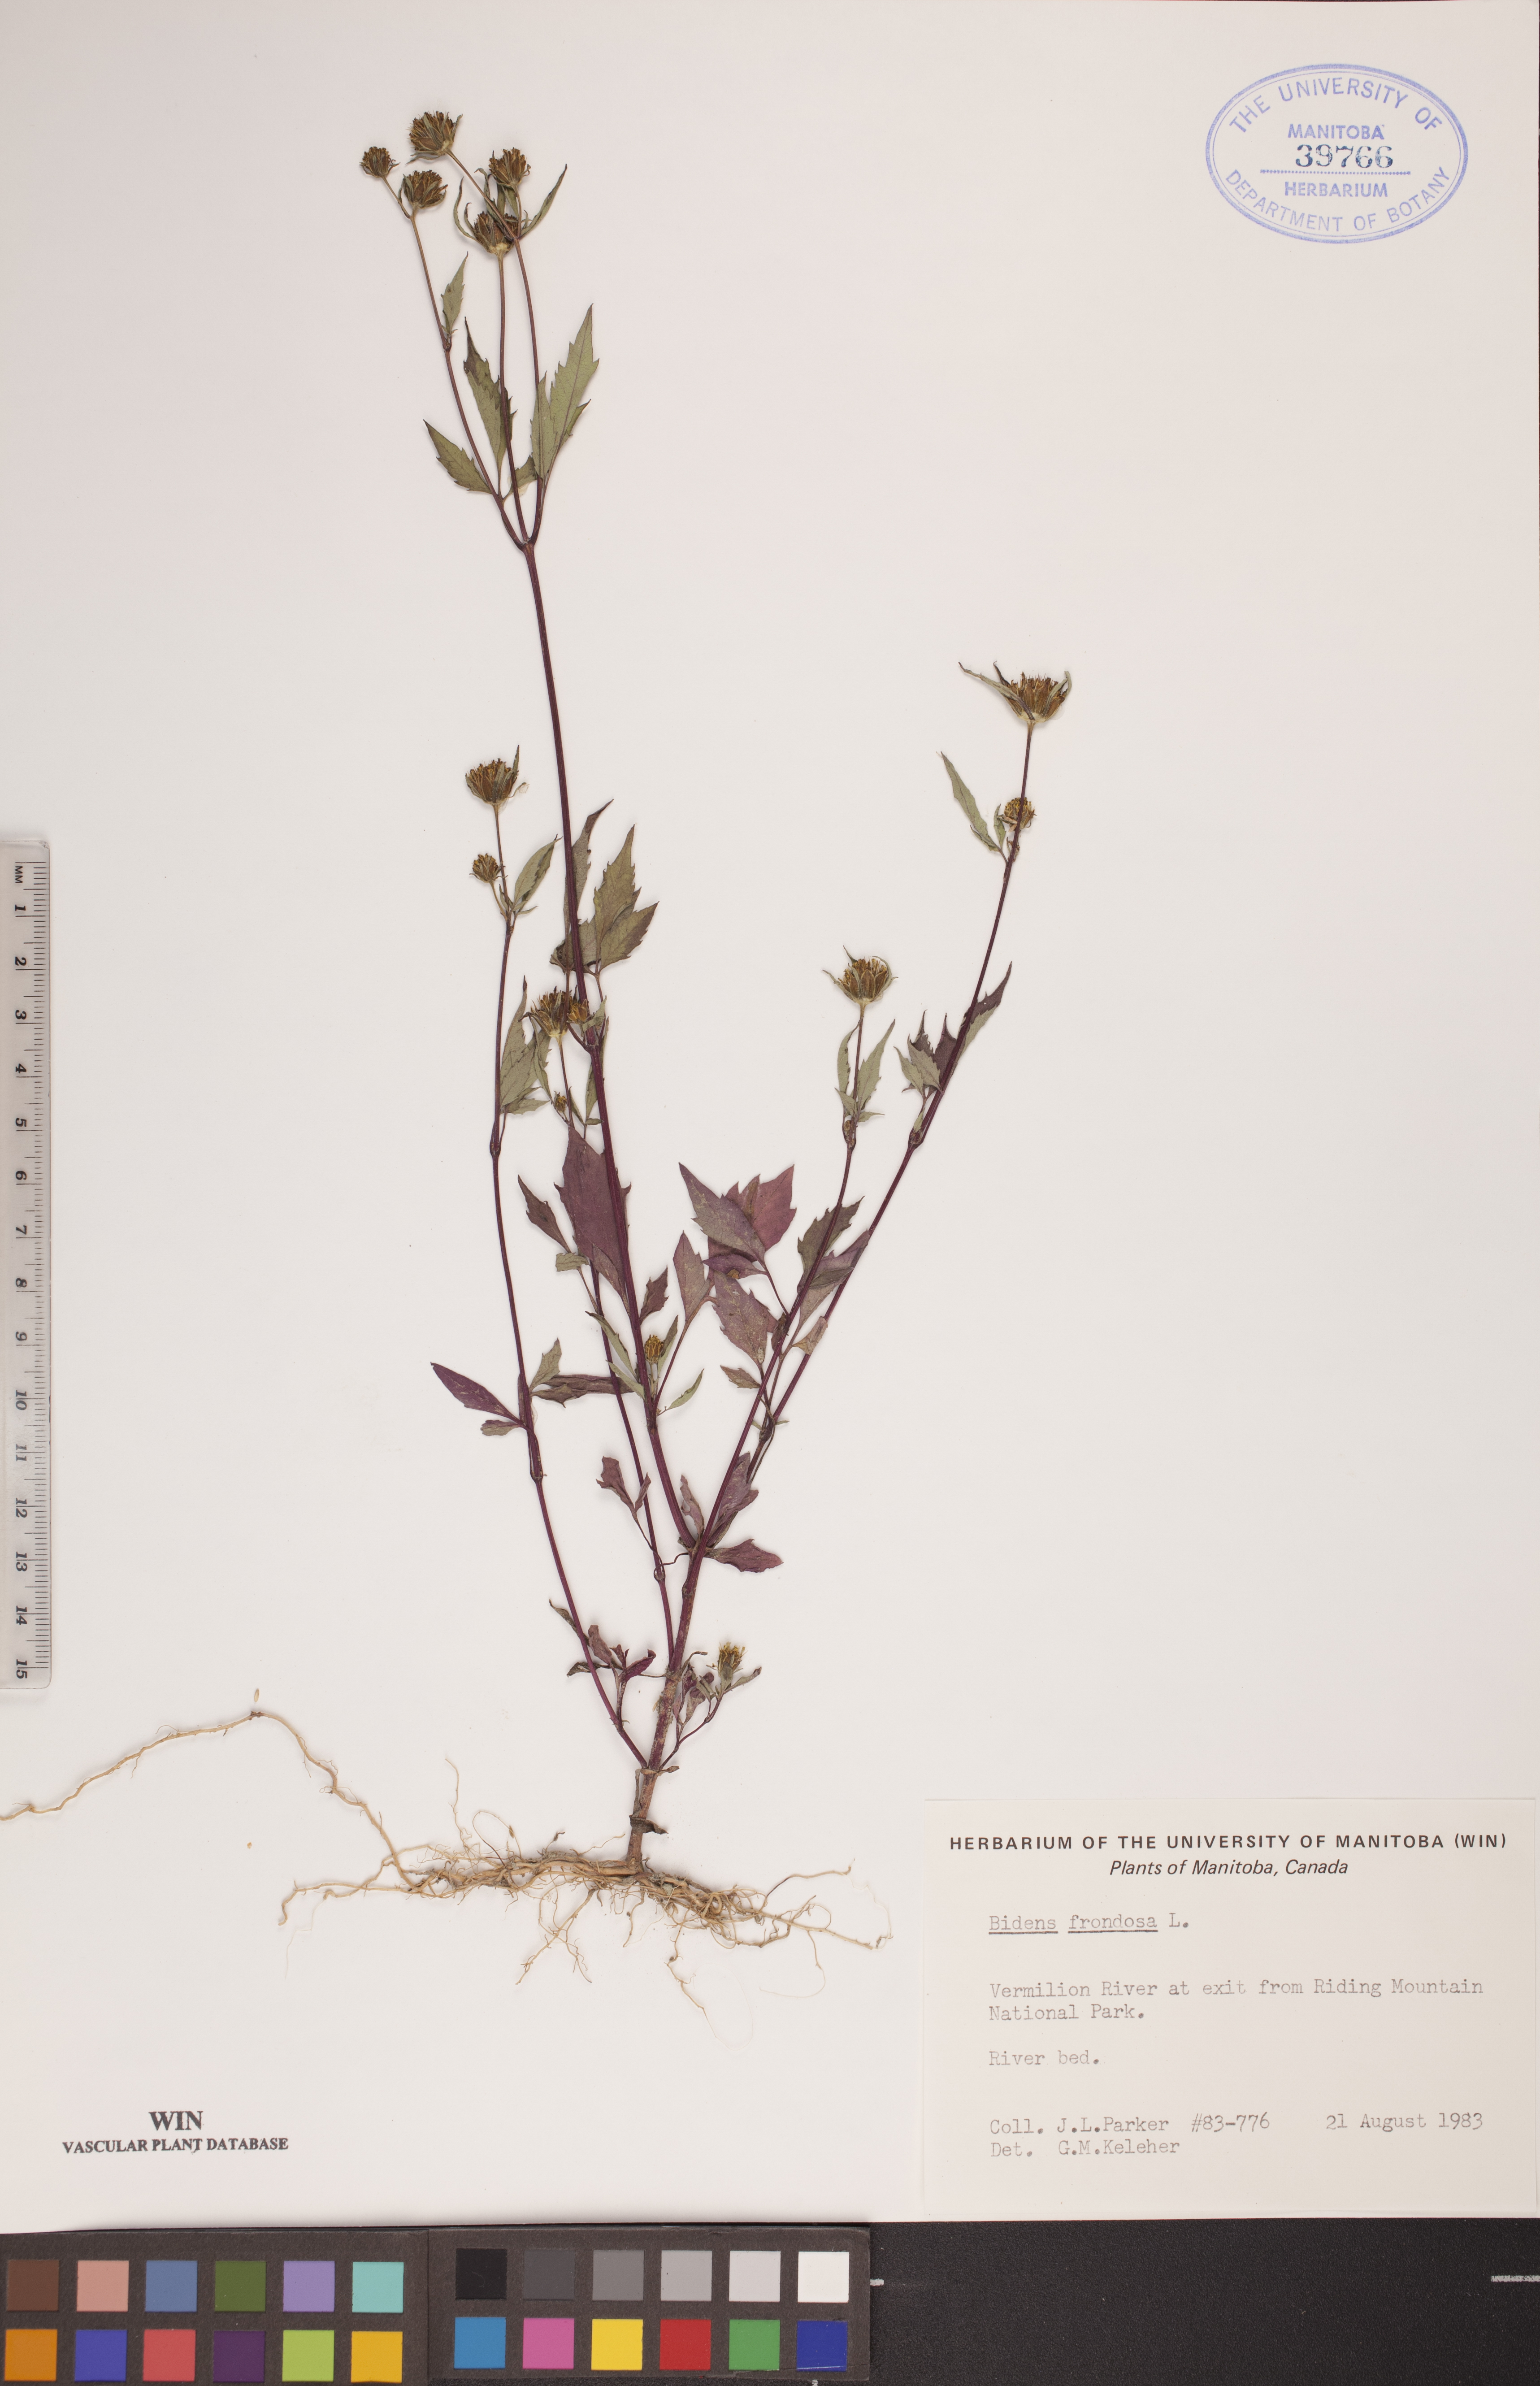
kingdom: Plantae
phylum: Tracheophyta
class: Magnoliopsida
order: Asterales
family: Asteraceae
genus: Bidens
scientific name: Bidens frondosa
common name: Beggarticks
